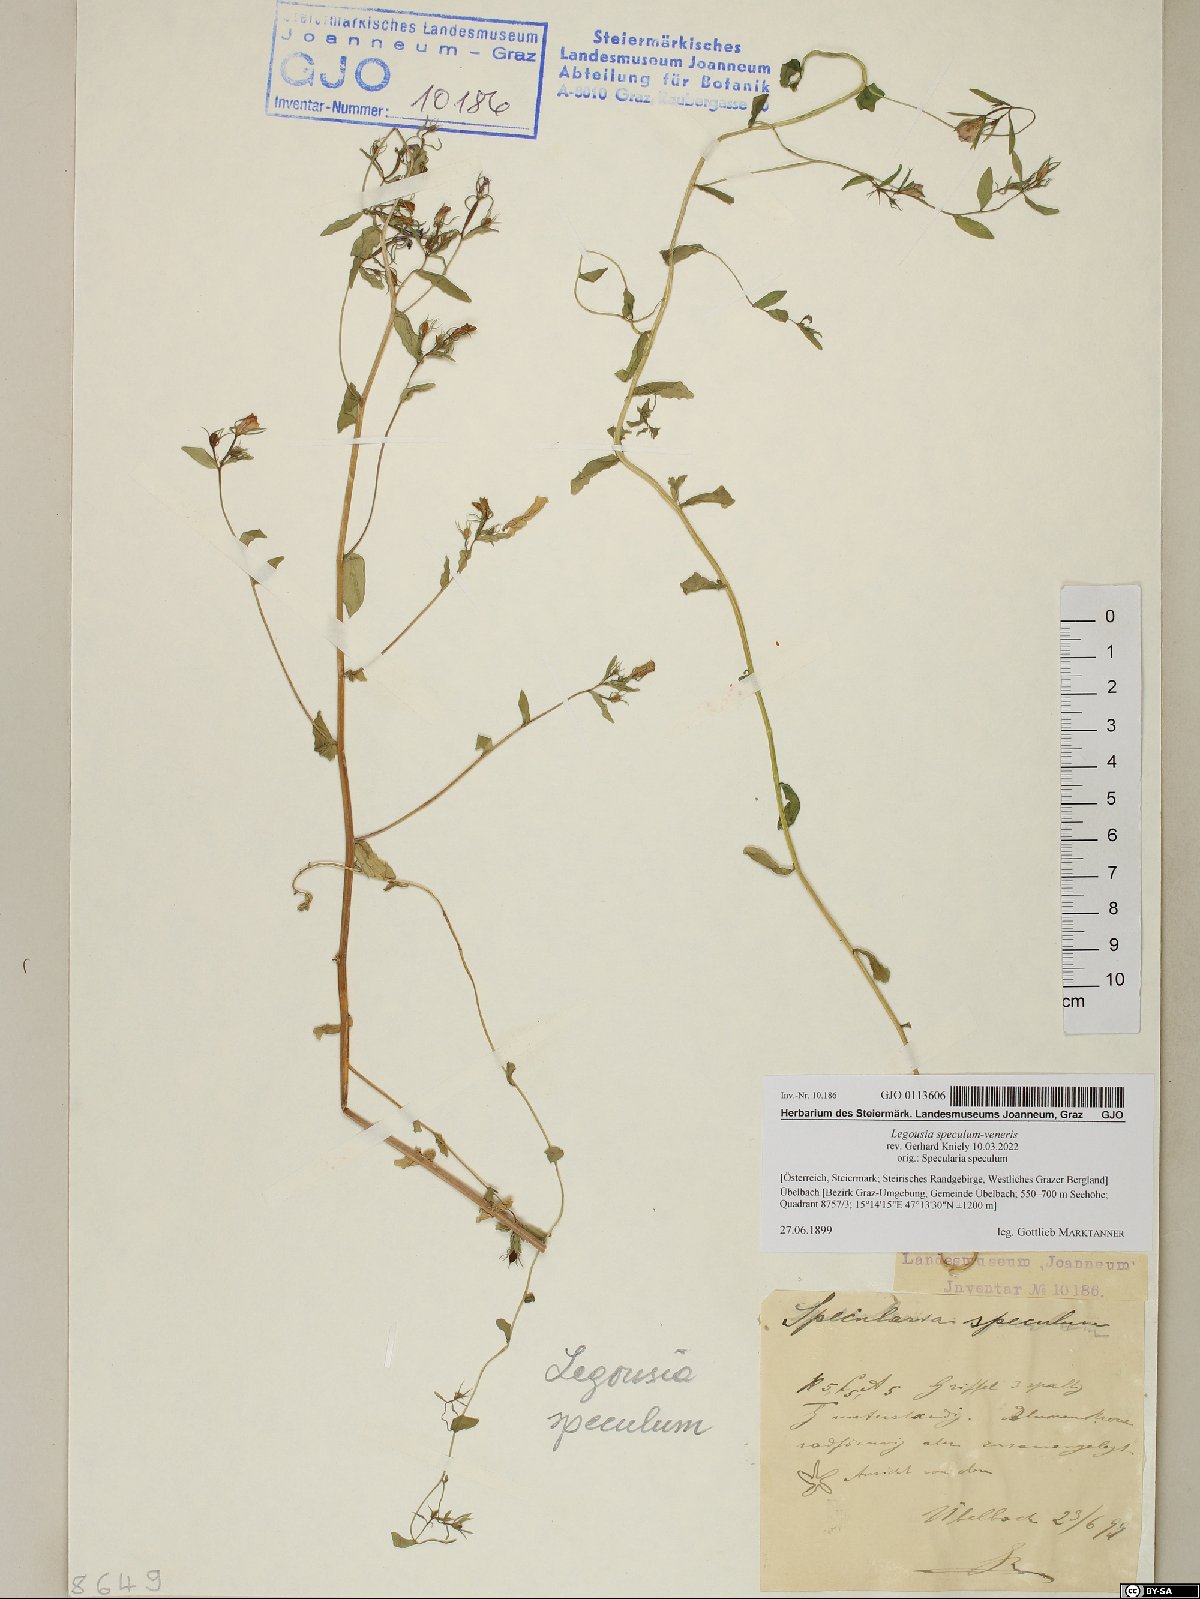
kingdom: Plantae
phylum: Tracheophyta
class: Magnoliopsida
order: Asterales
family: Campanulaceae
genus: Legousia
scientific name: Legousia speculum-veneris
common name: Large venus's-looking-glass
